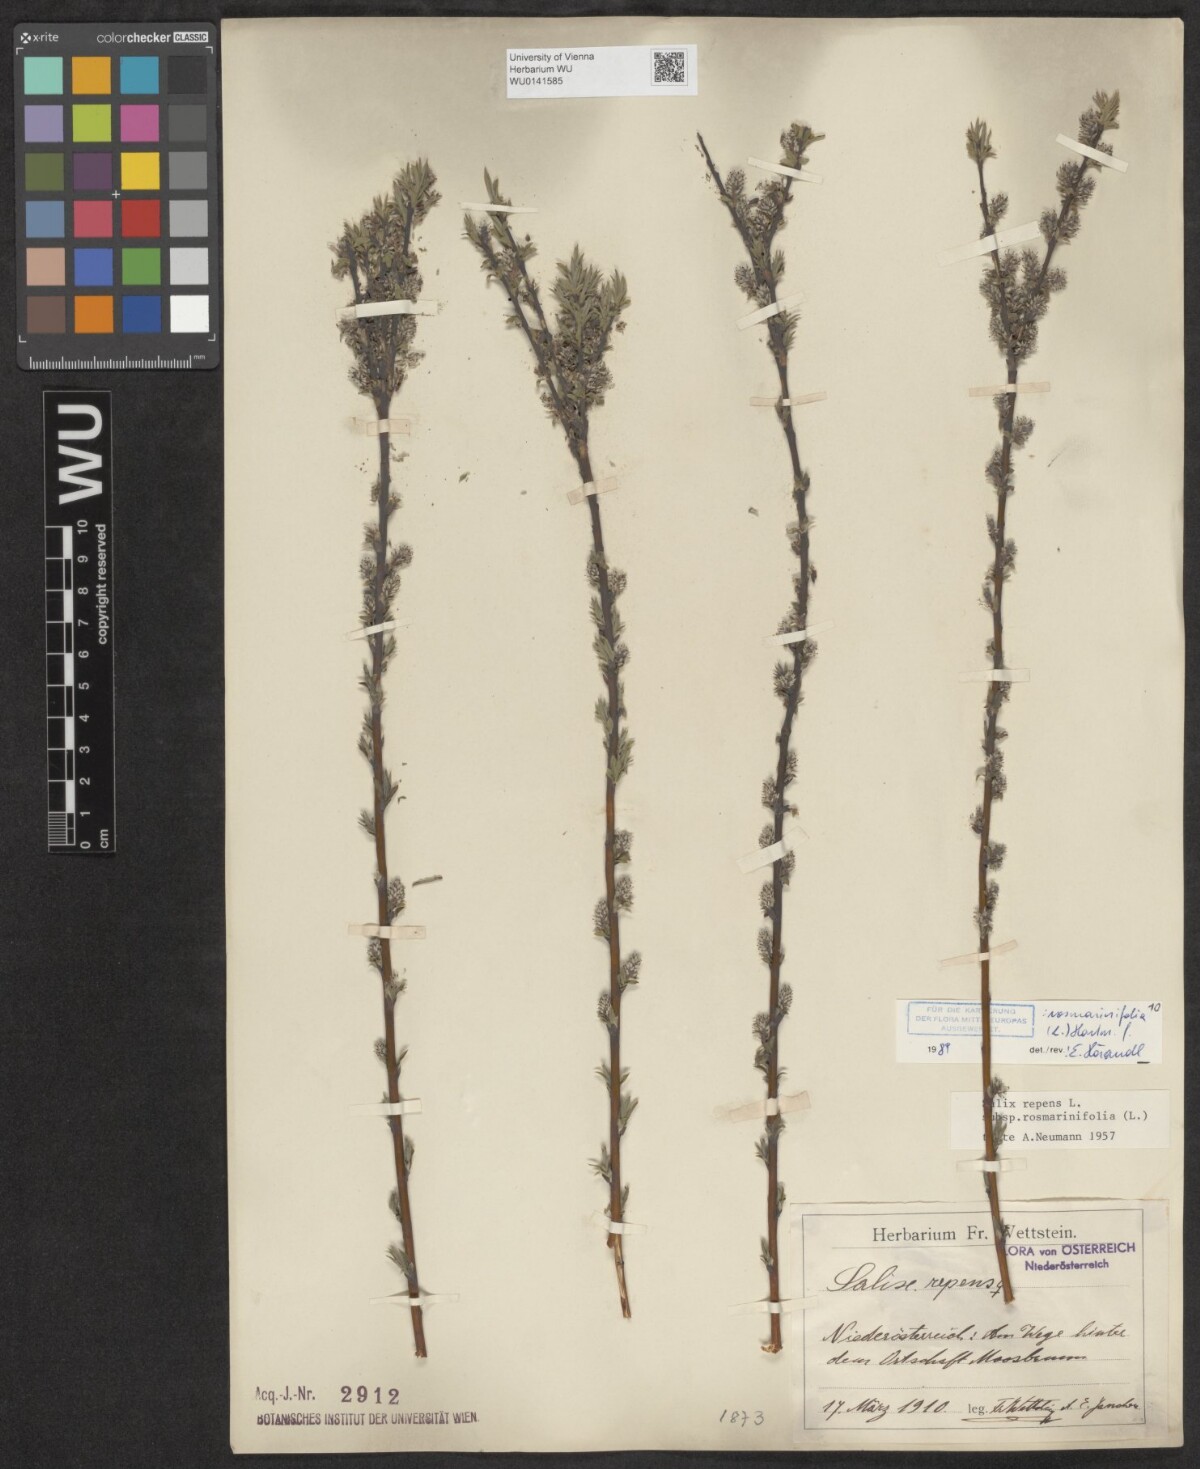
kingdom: Plantae
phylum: Tracheophyta
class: Magnoliopsida
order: Malpighiales
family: Salicaceae
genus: Salix
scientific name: Salix repens
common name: Creeping willow
